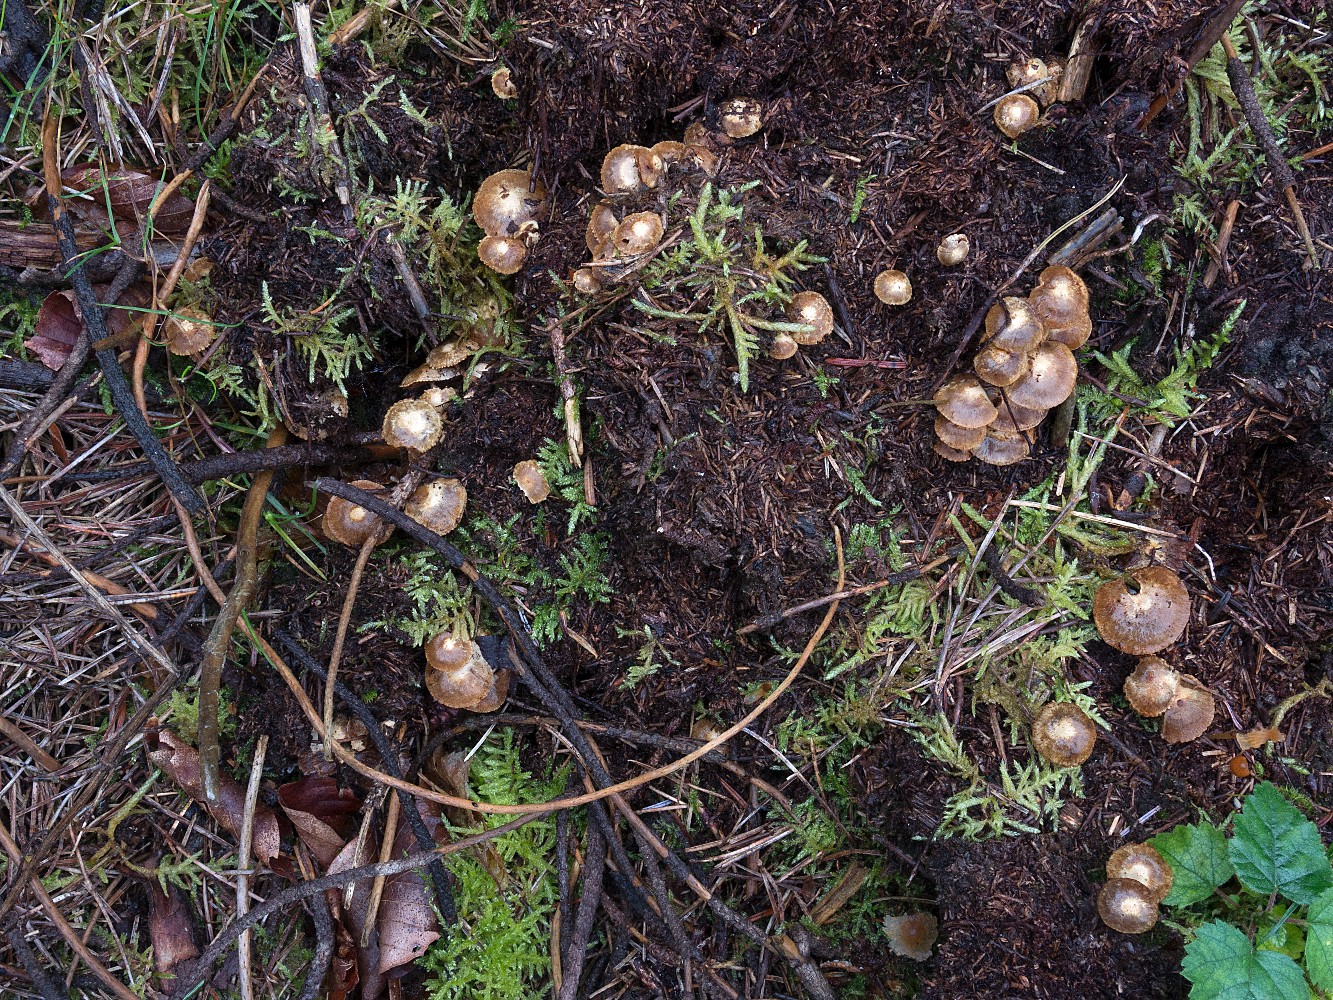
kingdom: Fungi
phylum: Basidiomycota
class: Agaricomycetes
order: Agaricales
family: Strophariaceae
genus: Pholiota
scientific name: Pholiota scamba
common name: dværg-skælhat
